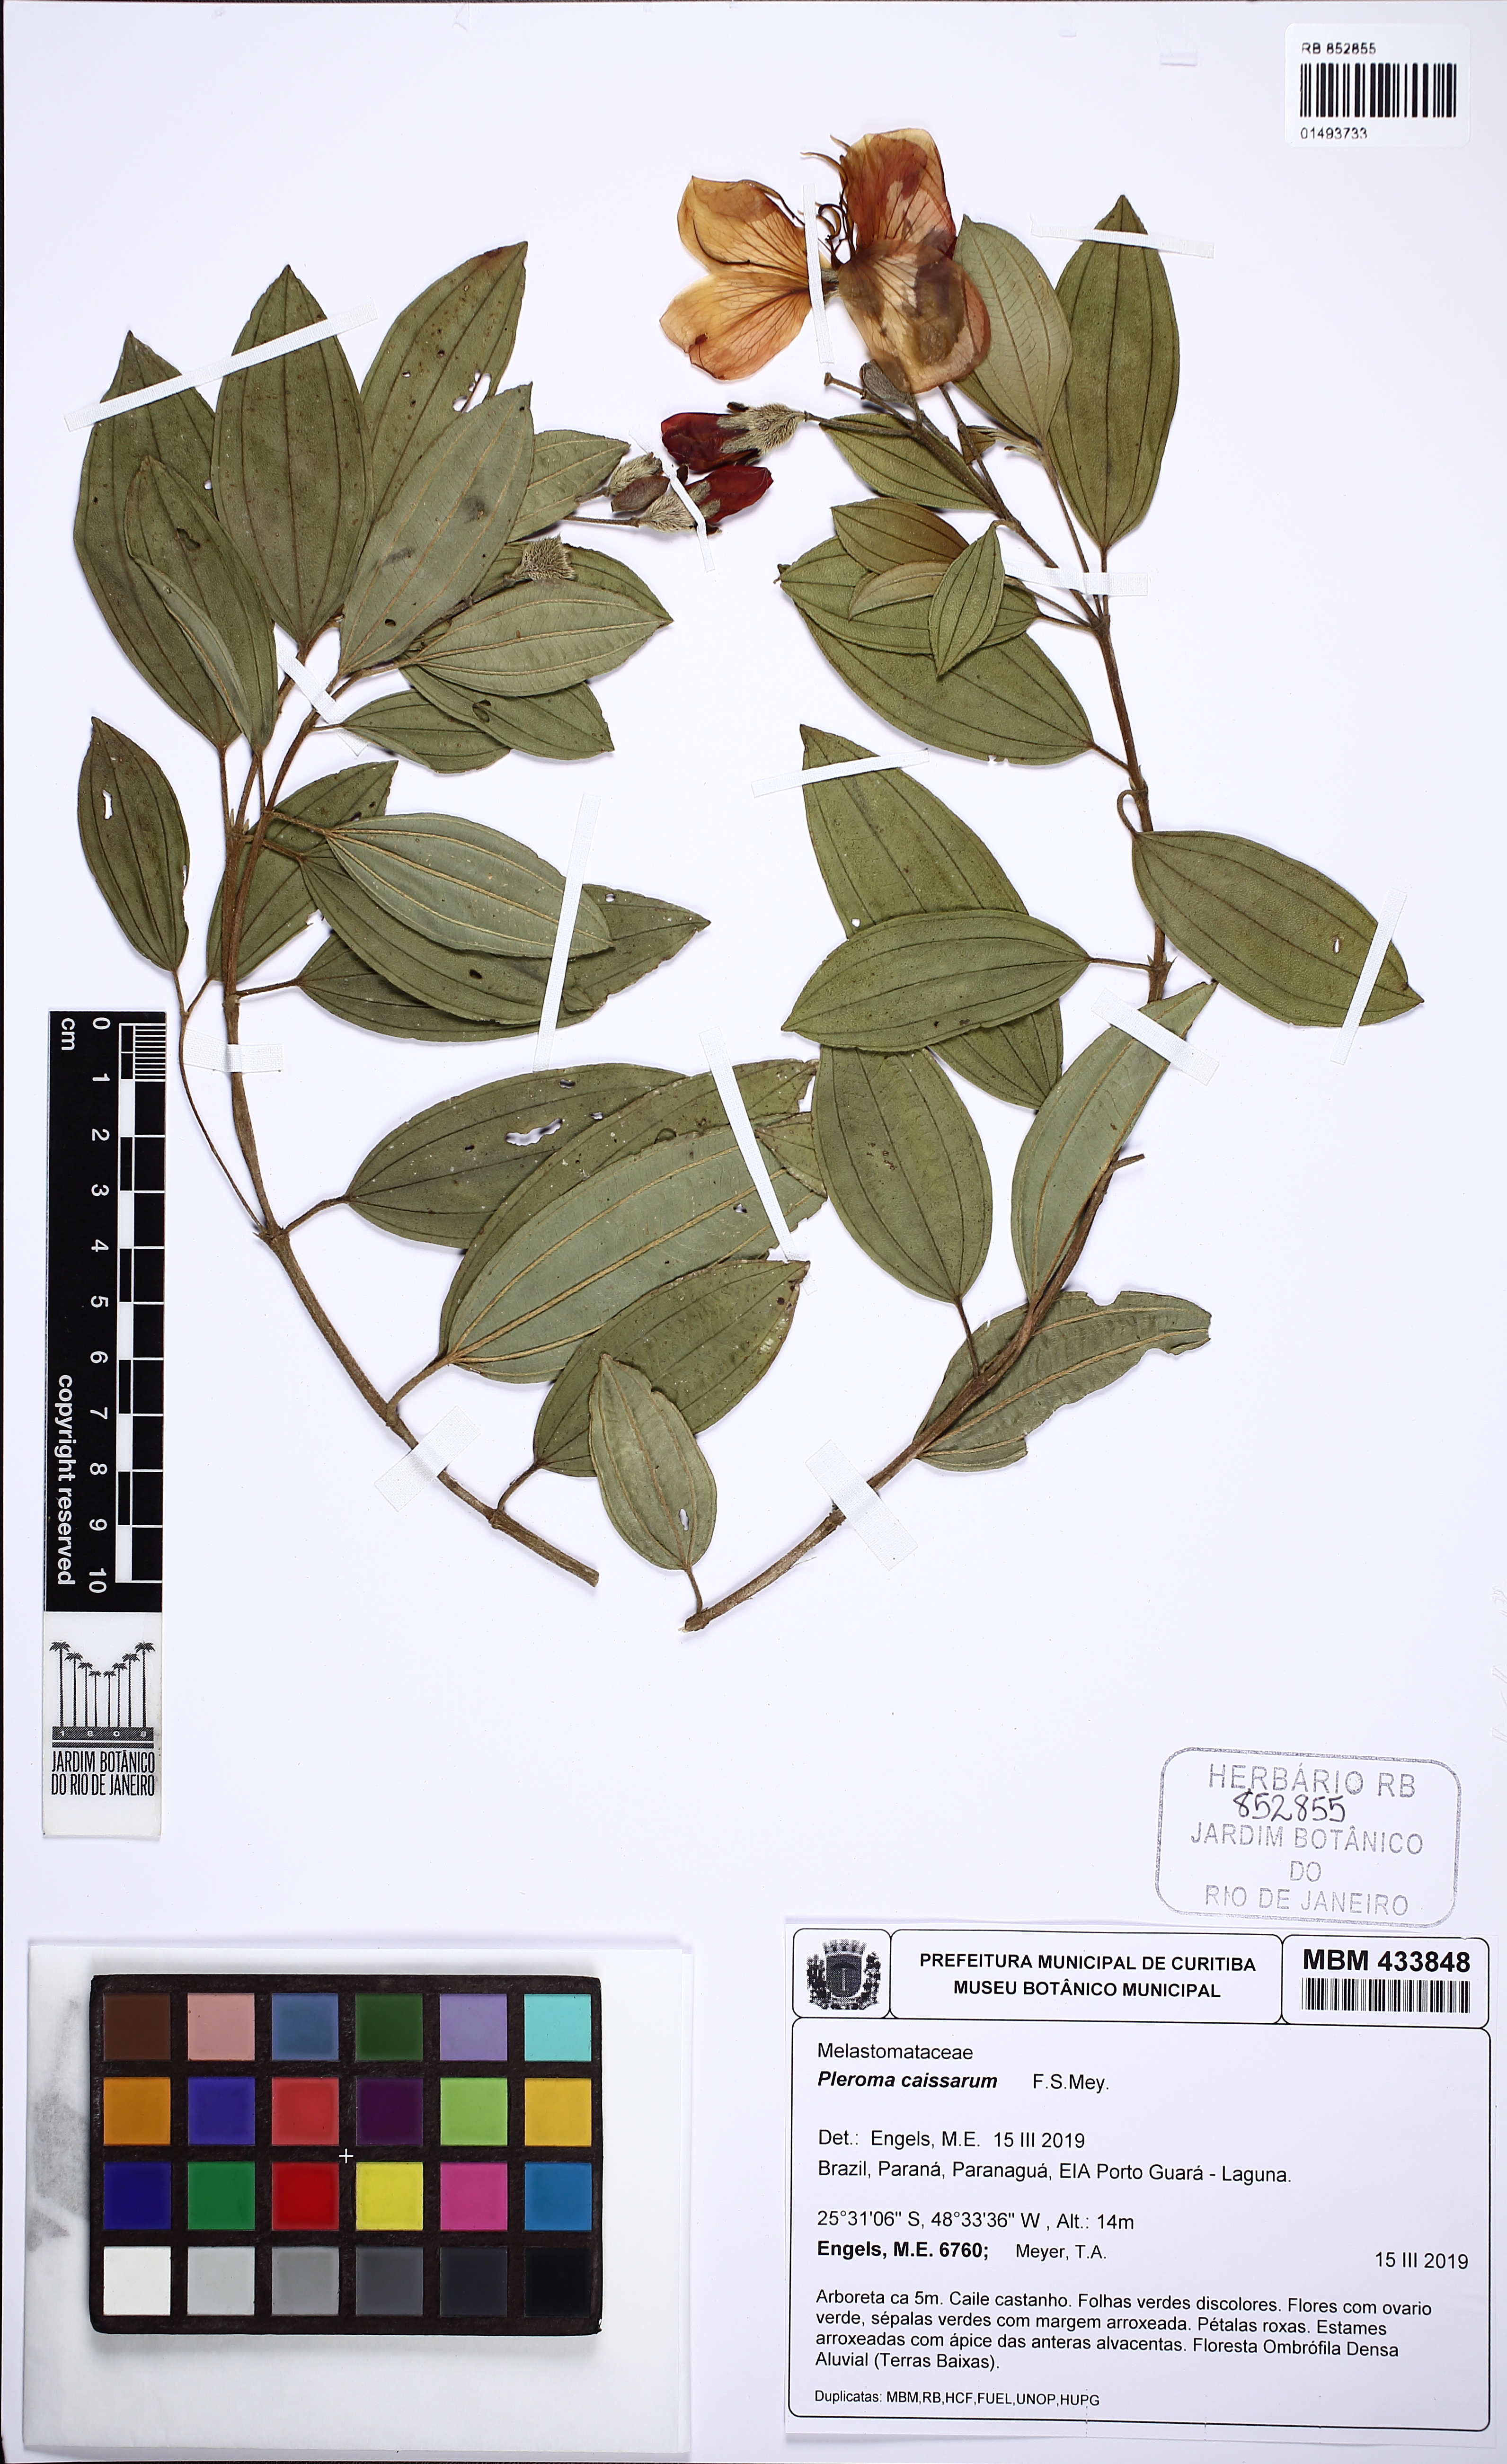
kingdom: Plantae
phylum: Tracheophyta
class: Magnoliopsida
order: Myrtales
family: Melastomataceae
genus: Pleroma
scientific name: Pleroma caissara
